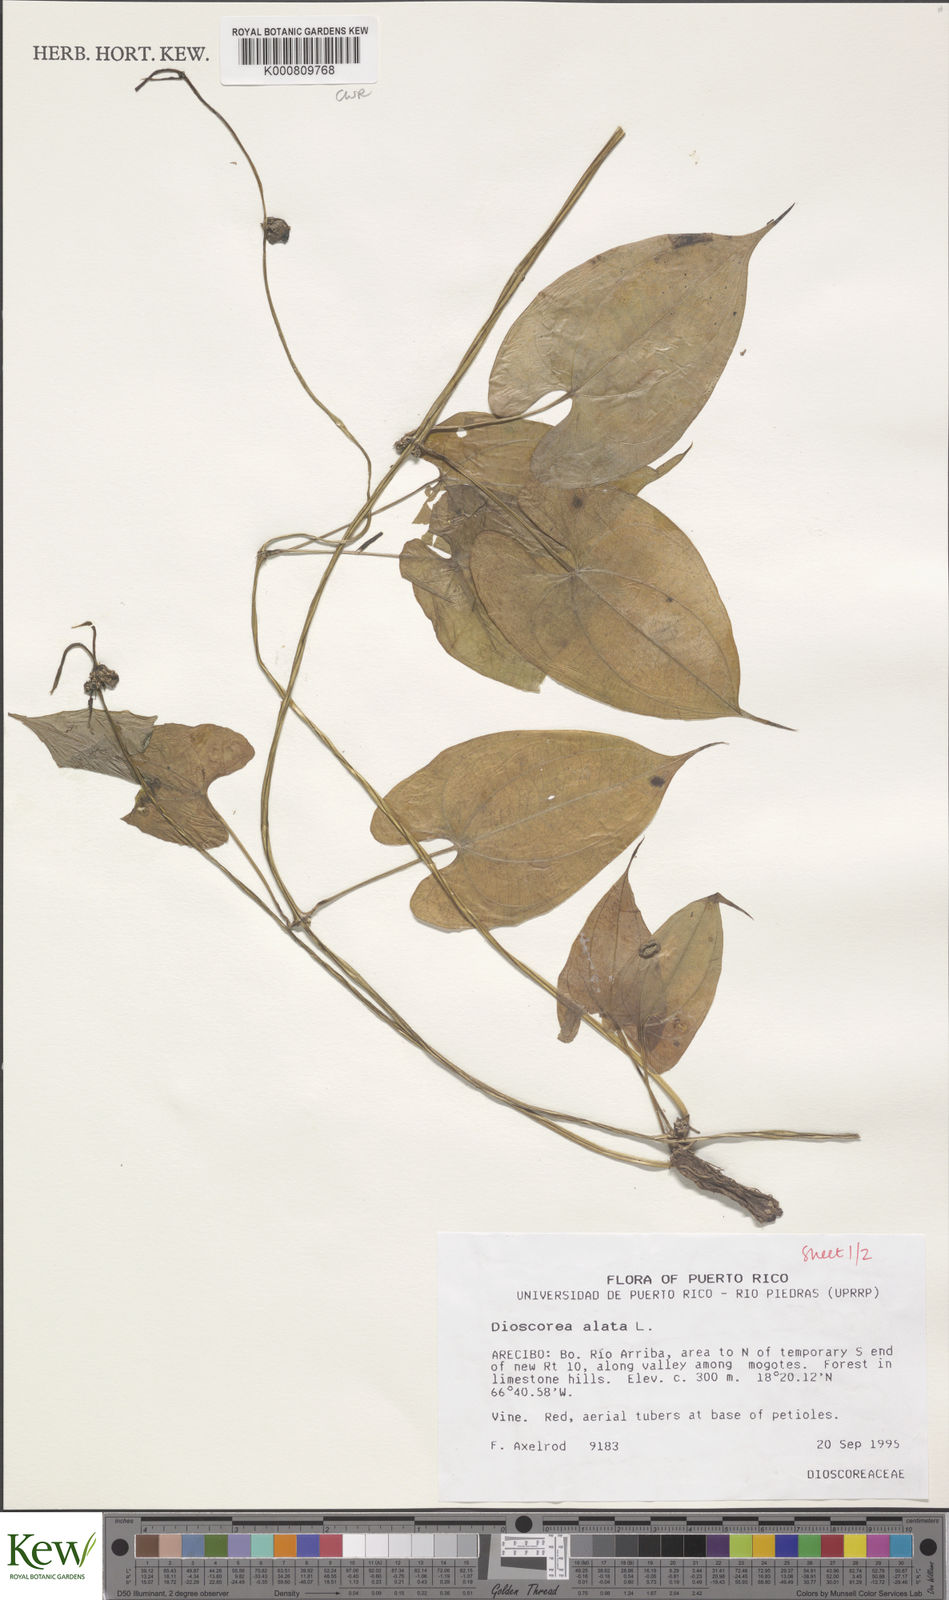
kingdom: Plantae
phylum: Tracheophyta
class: Liliopsida
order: Dioscoreales
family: Dioscoreaceae
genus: Dioscorea
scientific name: Dioscorea alata
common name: Water yam
